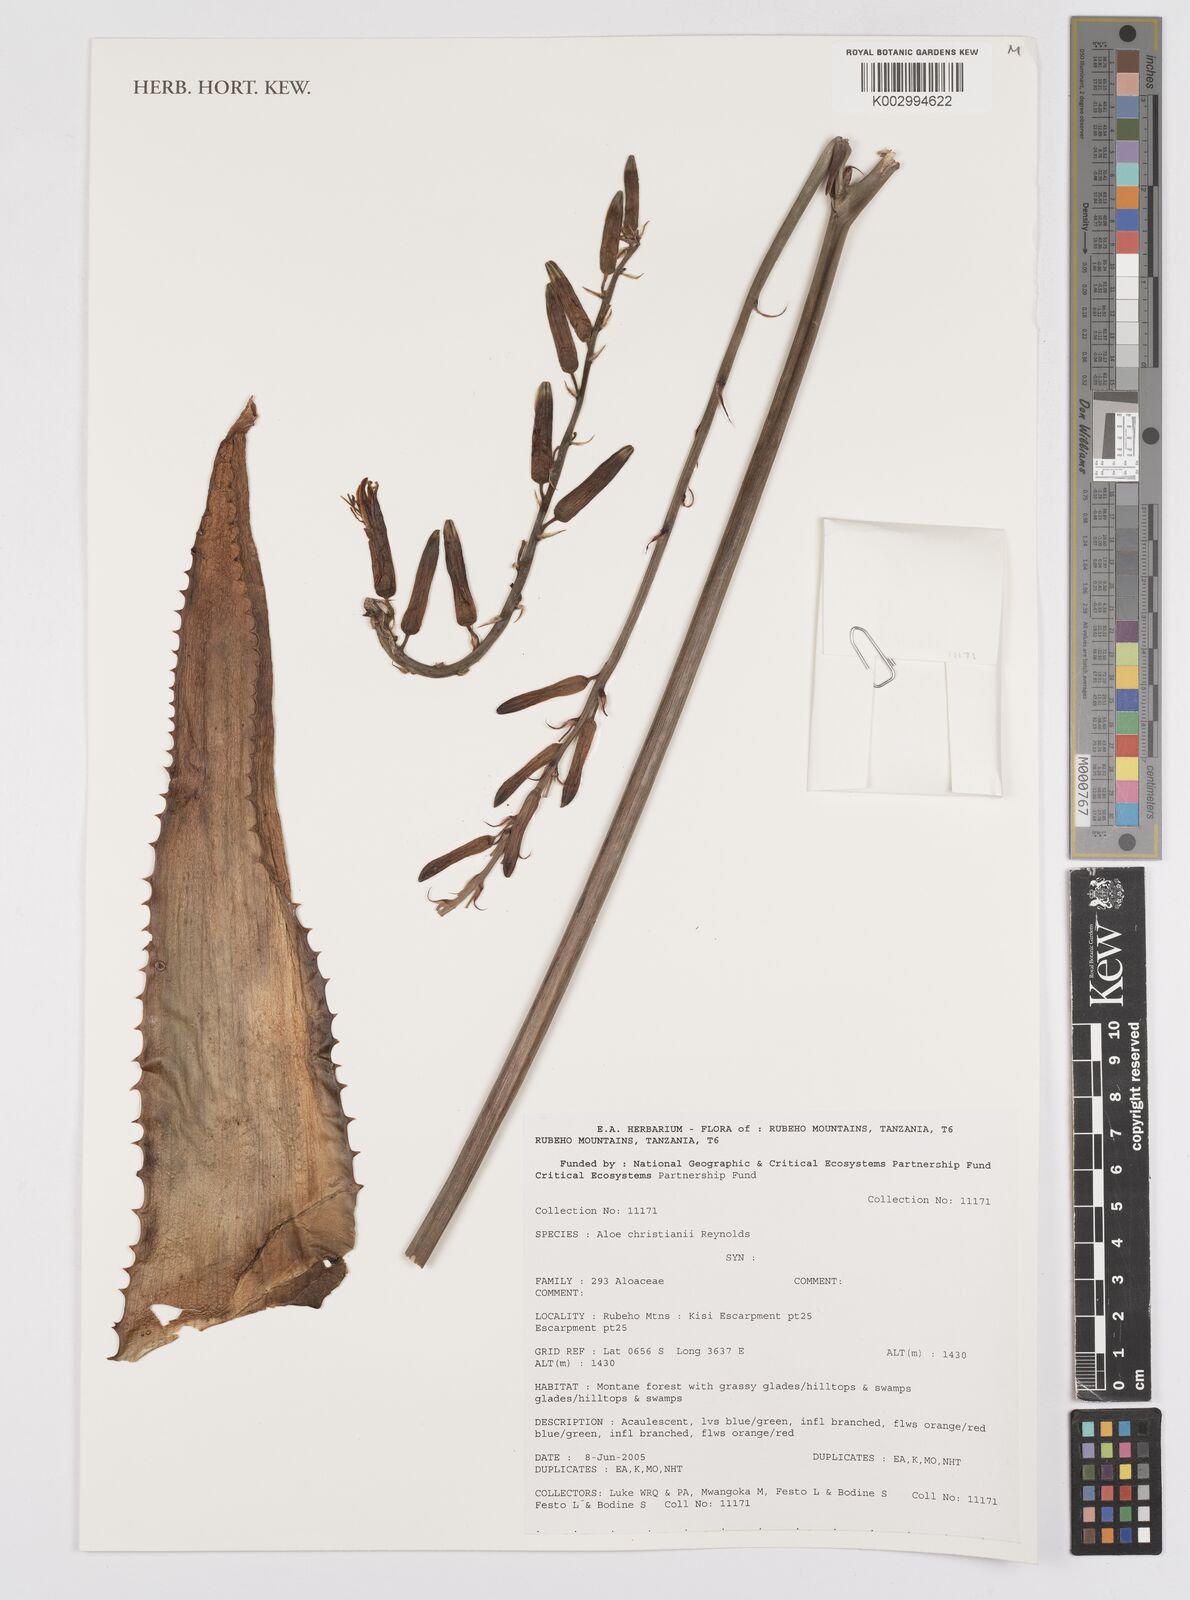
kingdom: Plantae
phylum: Tracheophyta
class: Liliopsida
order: Asparagales
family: Asphodelaceae
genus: Aloe
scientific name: Aloe christianii
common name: Basil christian's aloe
